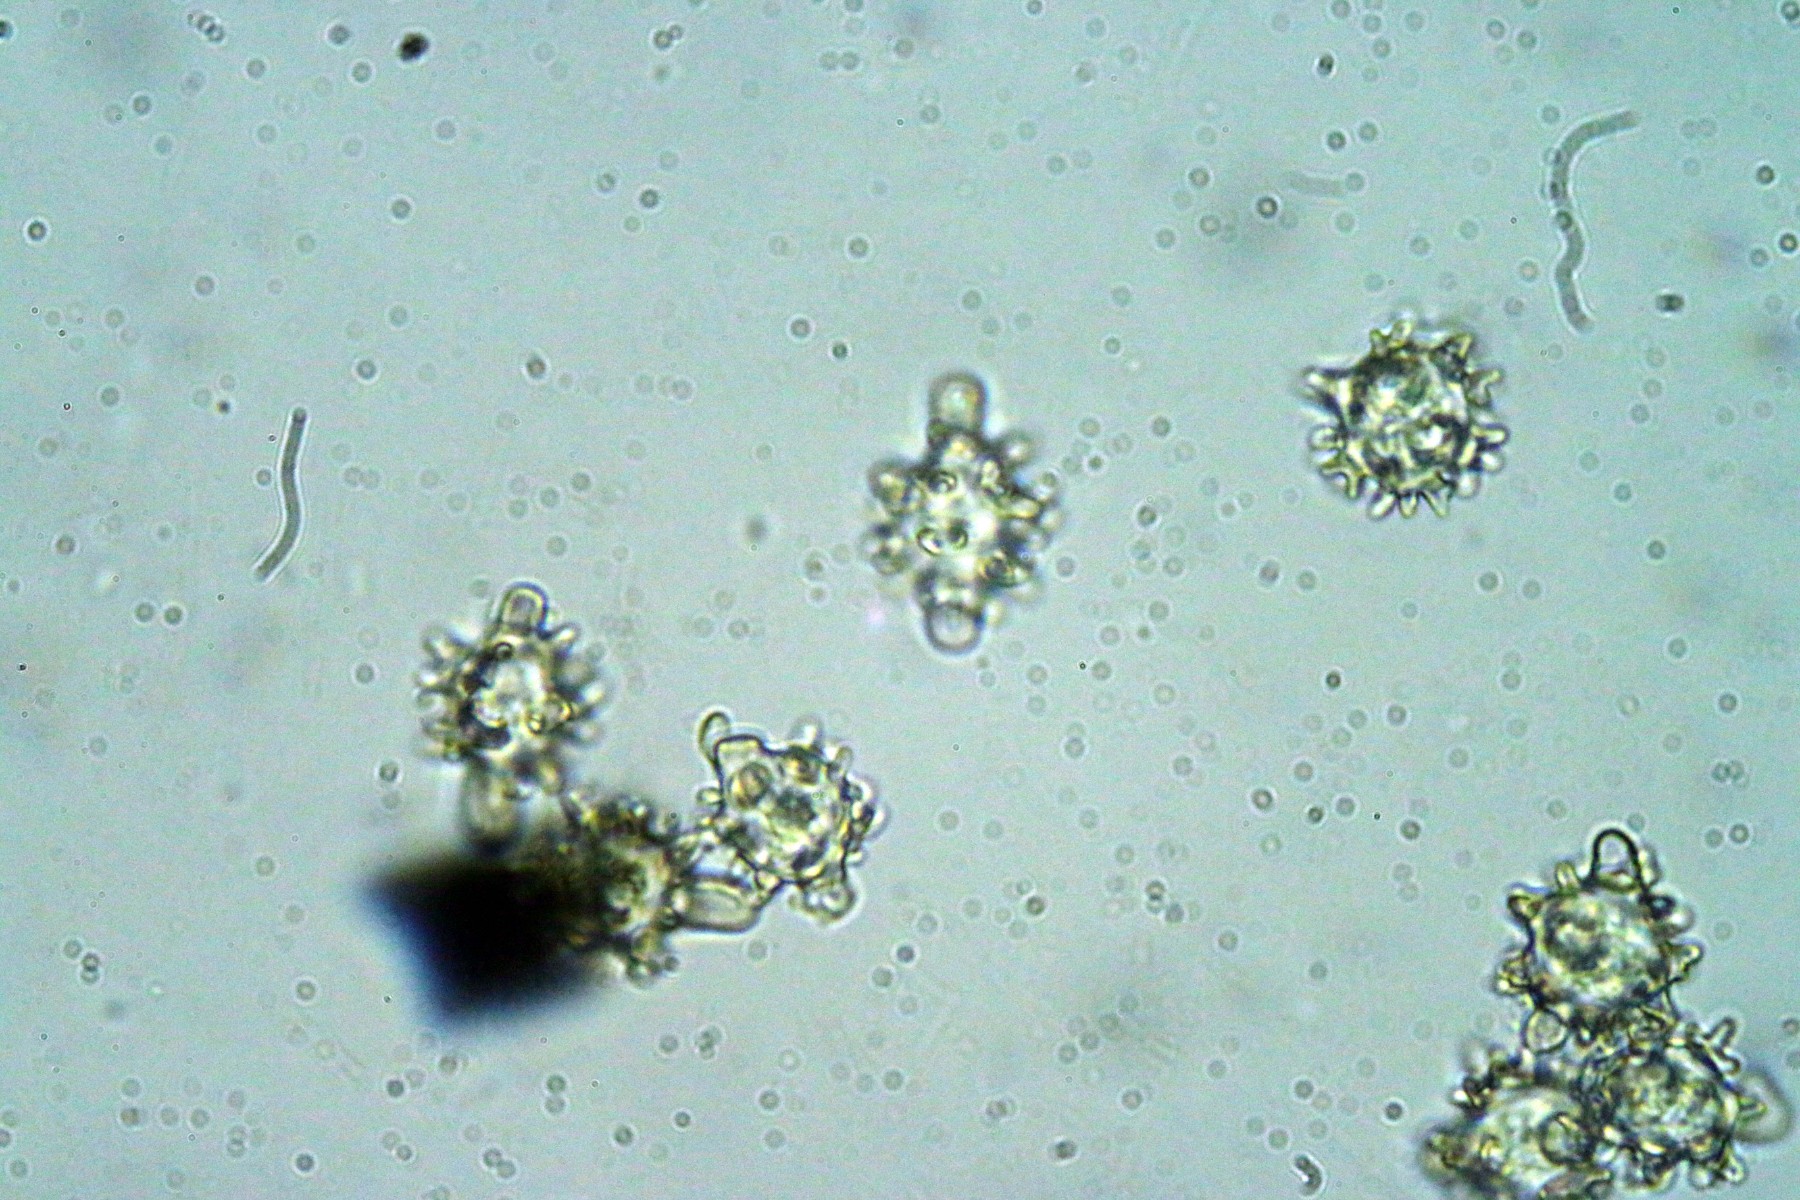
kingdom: Fungi
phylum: Basidiomycota
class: Agaricomycetes
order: Agaricales
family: Lyophyllaceae
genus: Asterophora
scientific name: Asterophora lycoperdoides
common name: brunpudret snyltehat
